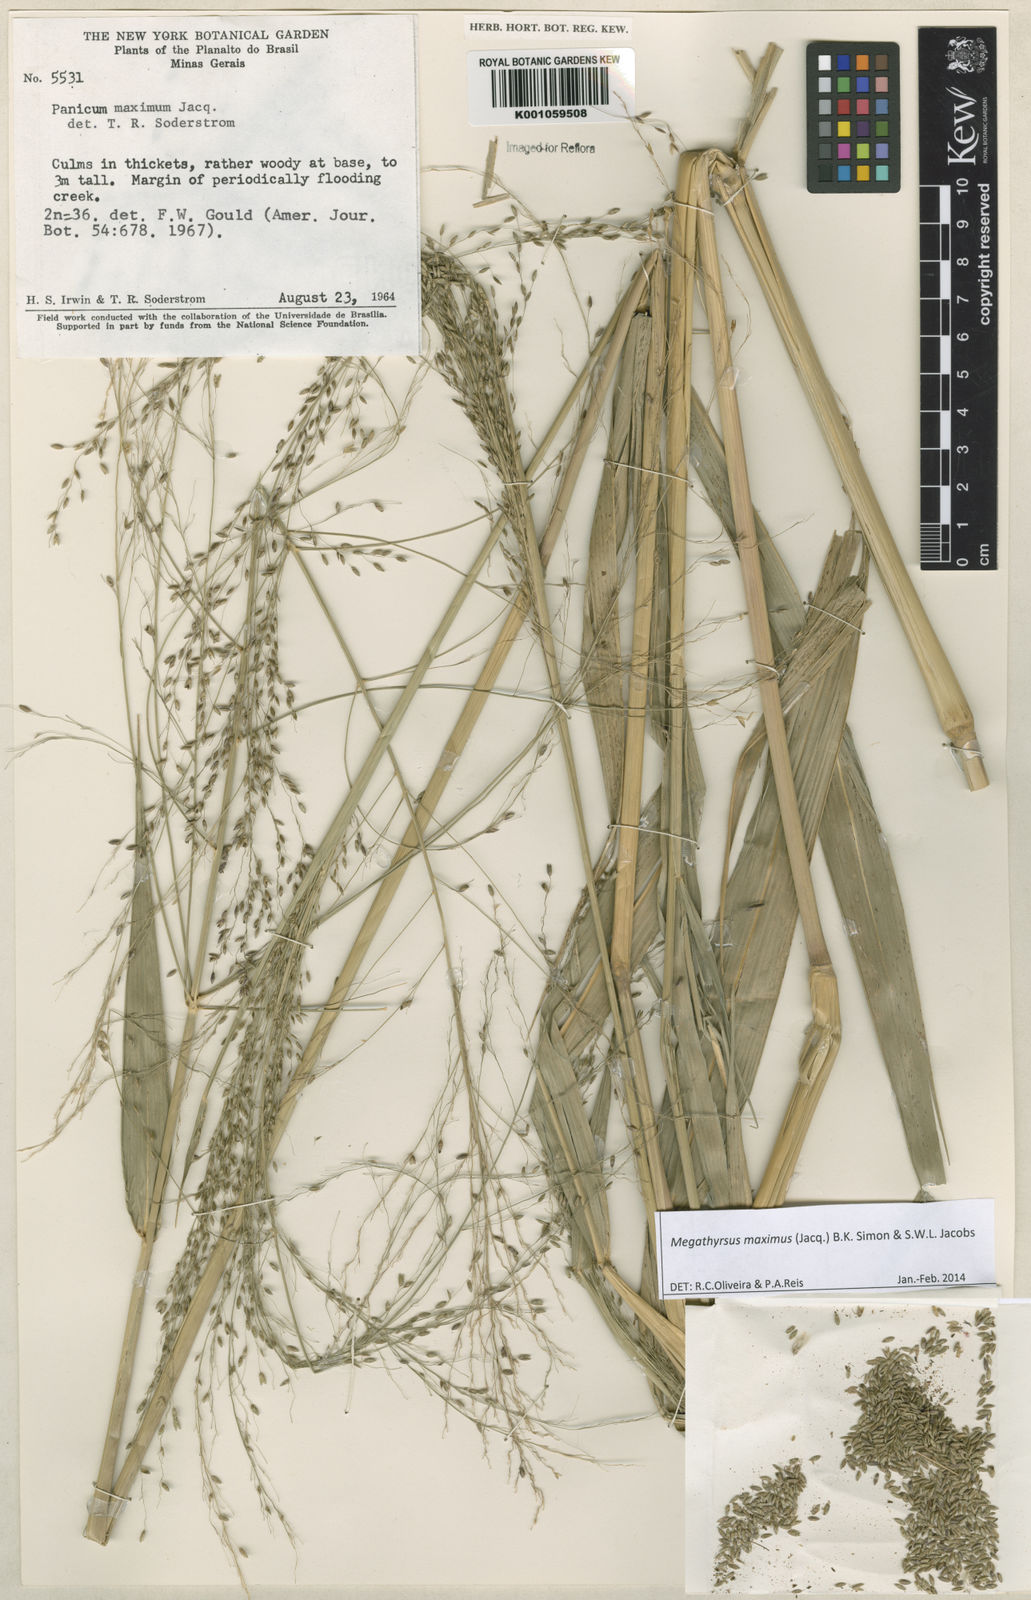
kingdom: Plantae
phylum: Tracheophyta
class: Liliopsida
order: Poales
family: Poaceae
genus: Megathyrsus
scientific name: Megathyrsus maximus
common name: Guineagrass
